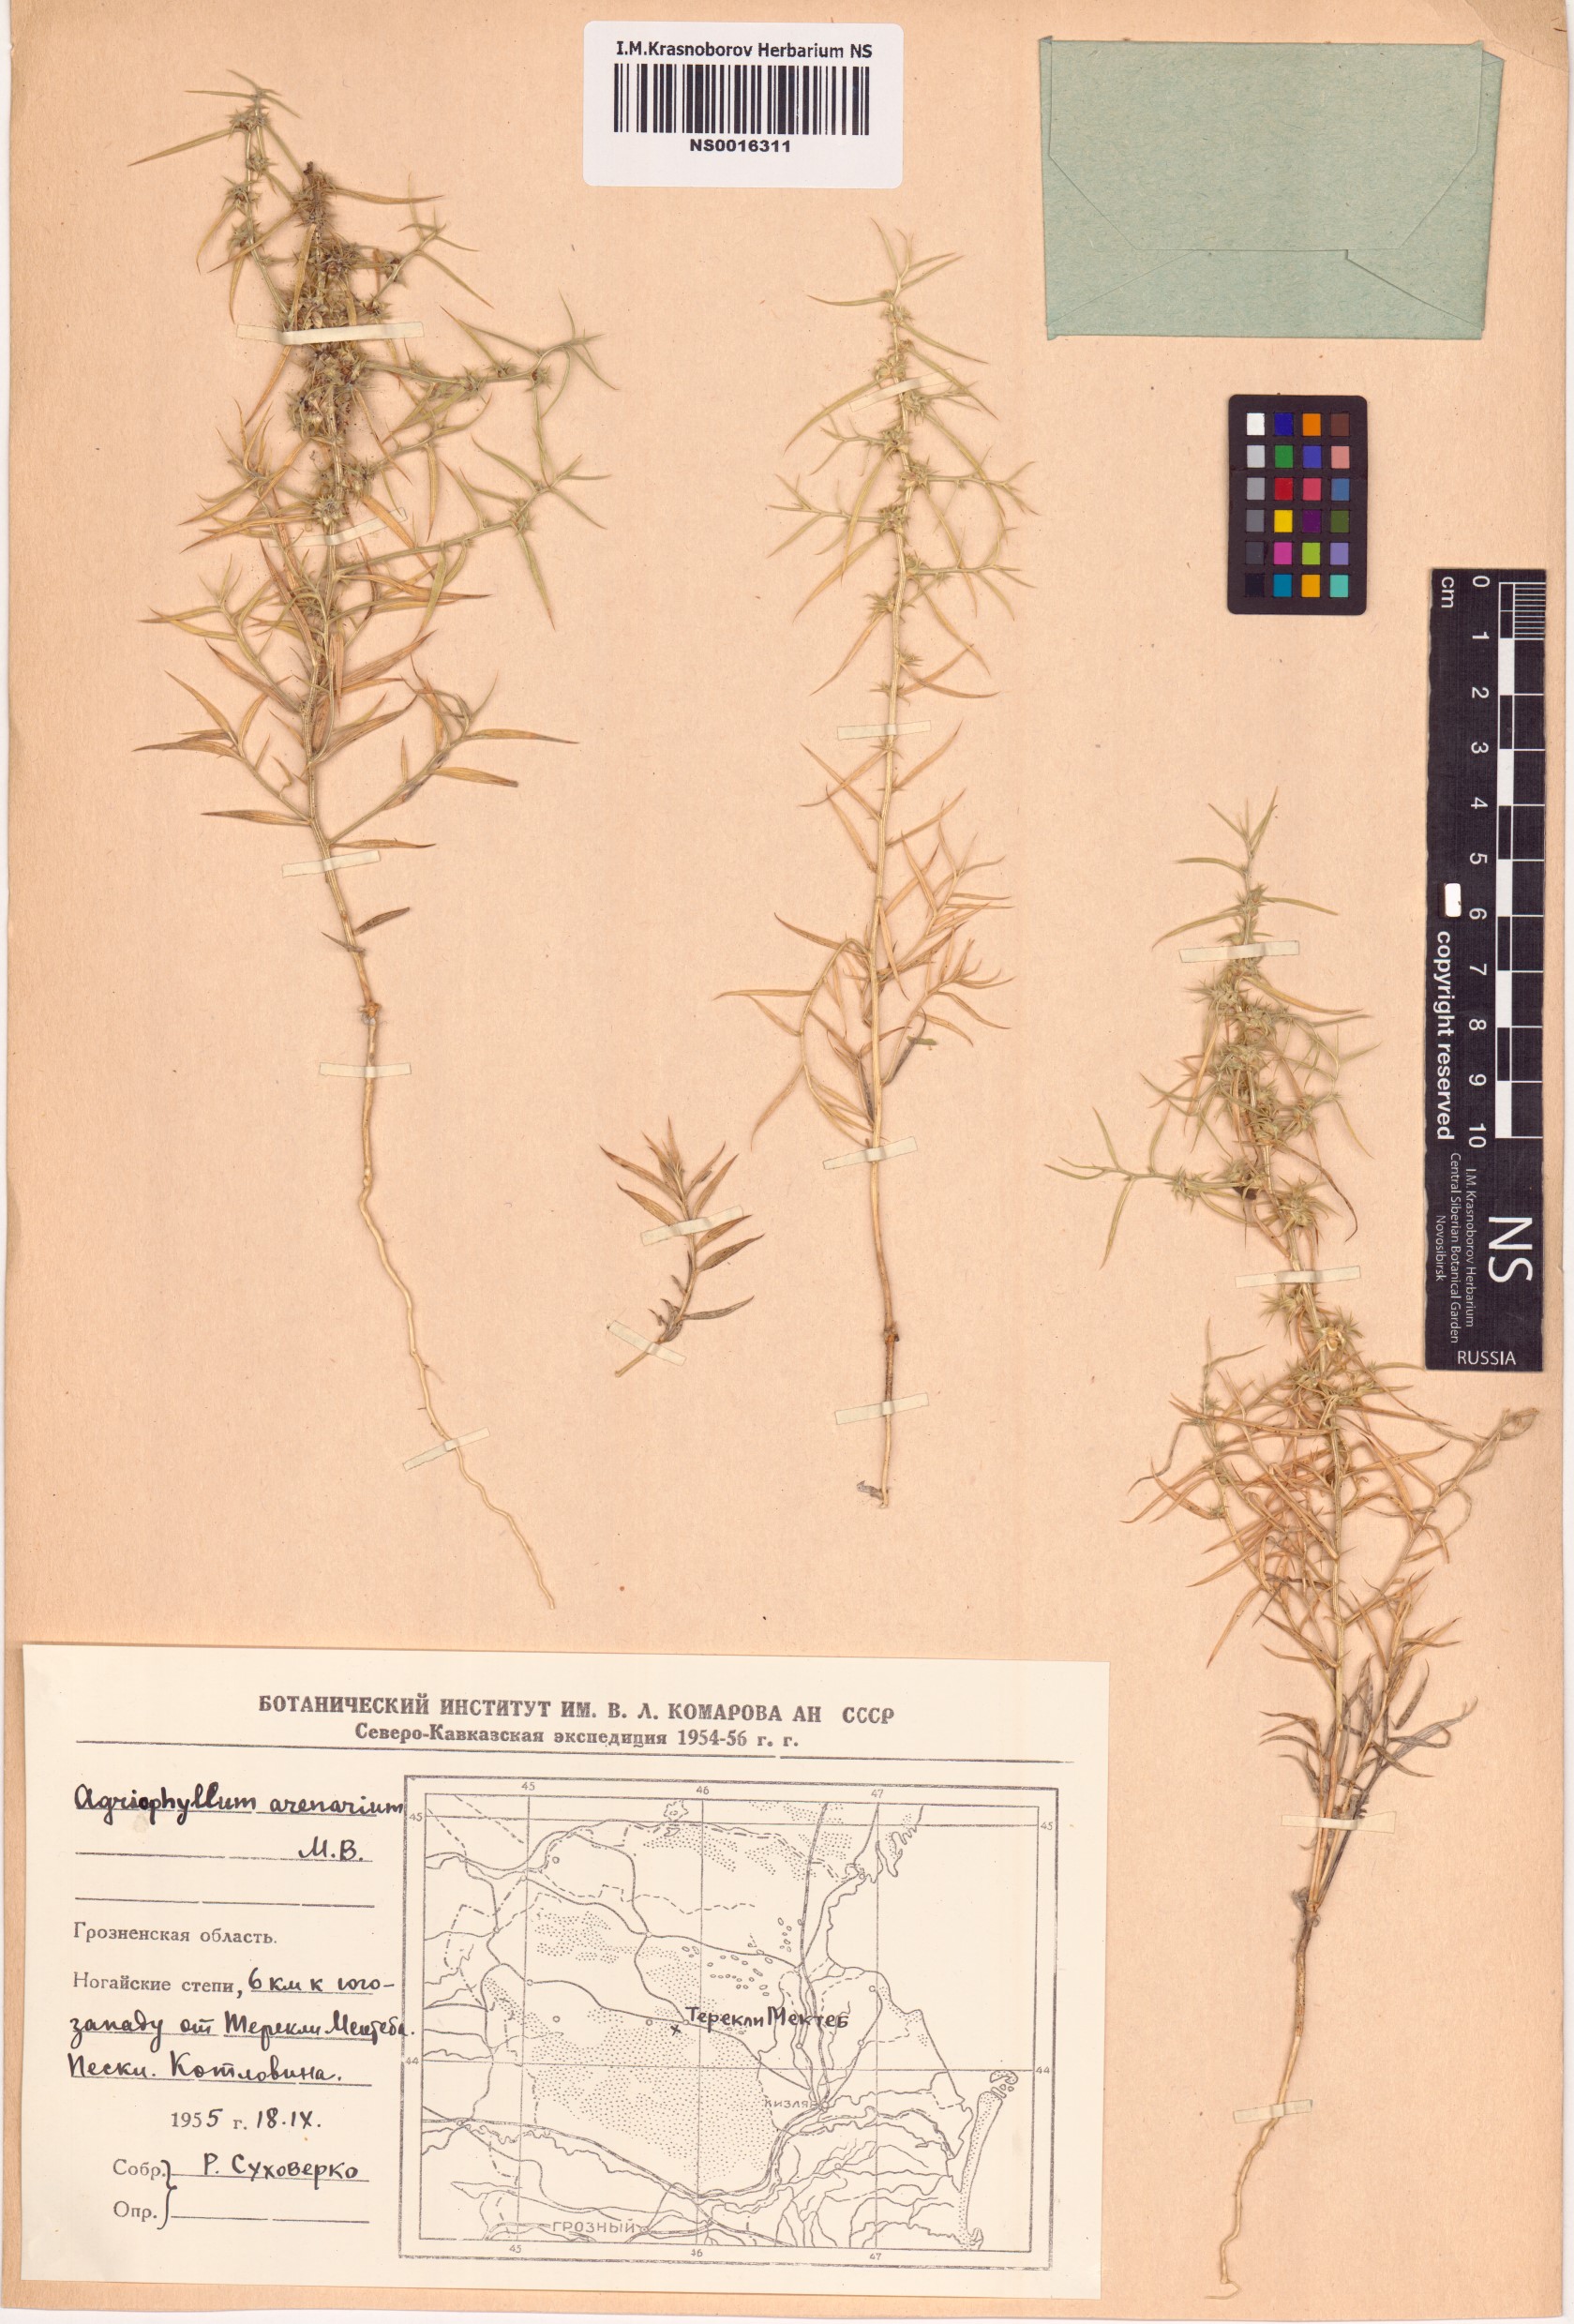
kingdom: Plantae
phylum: Tracheophyta
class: Magnoliopsida
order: Caryophyllales
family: Amaranthaceae
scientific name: Amaranthaceae
